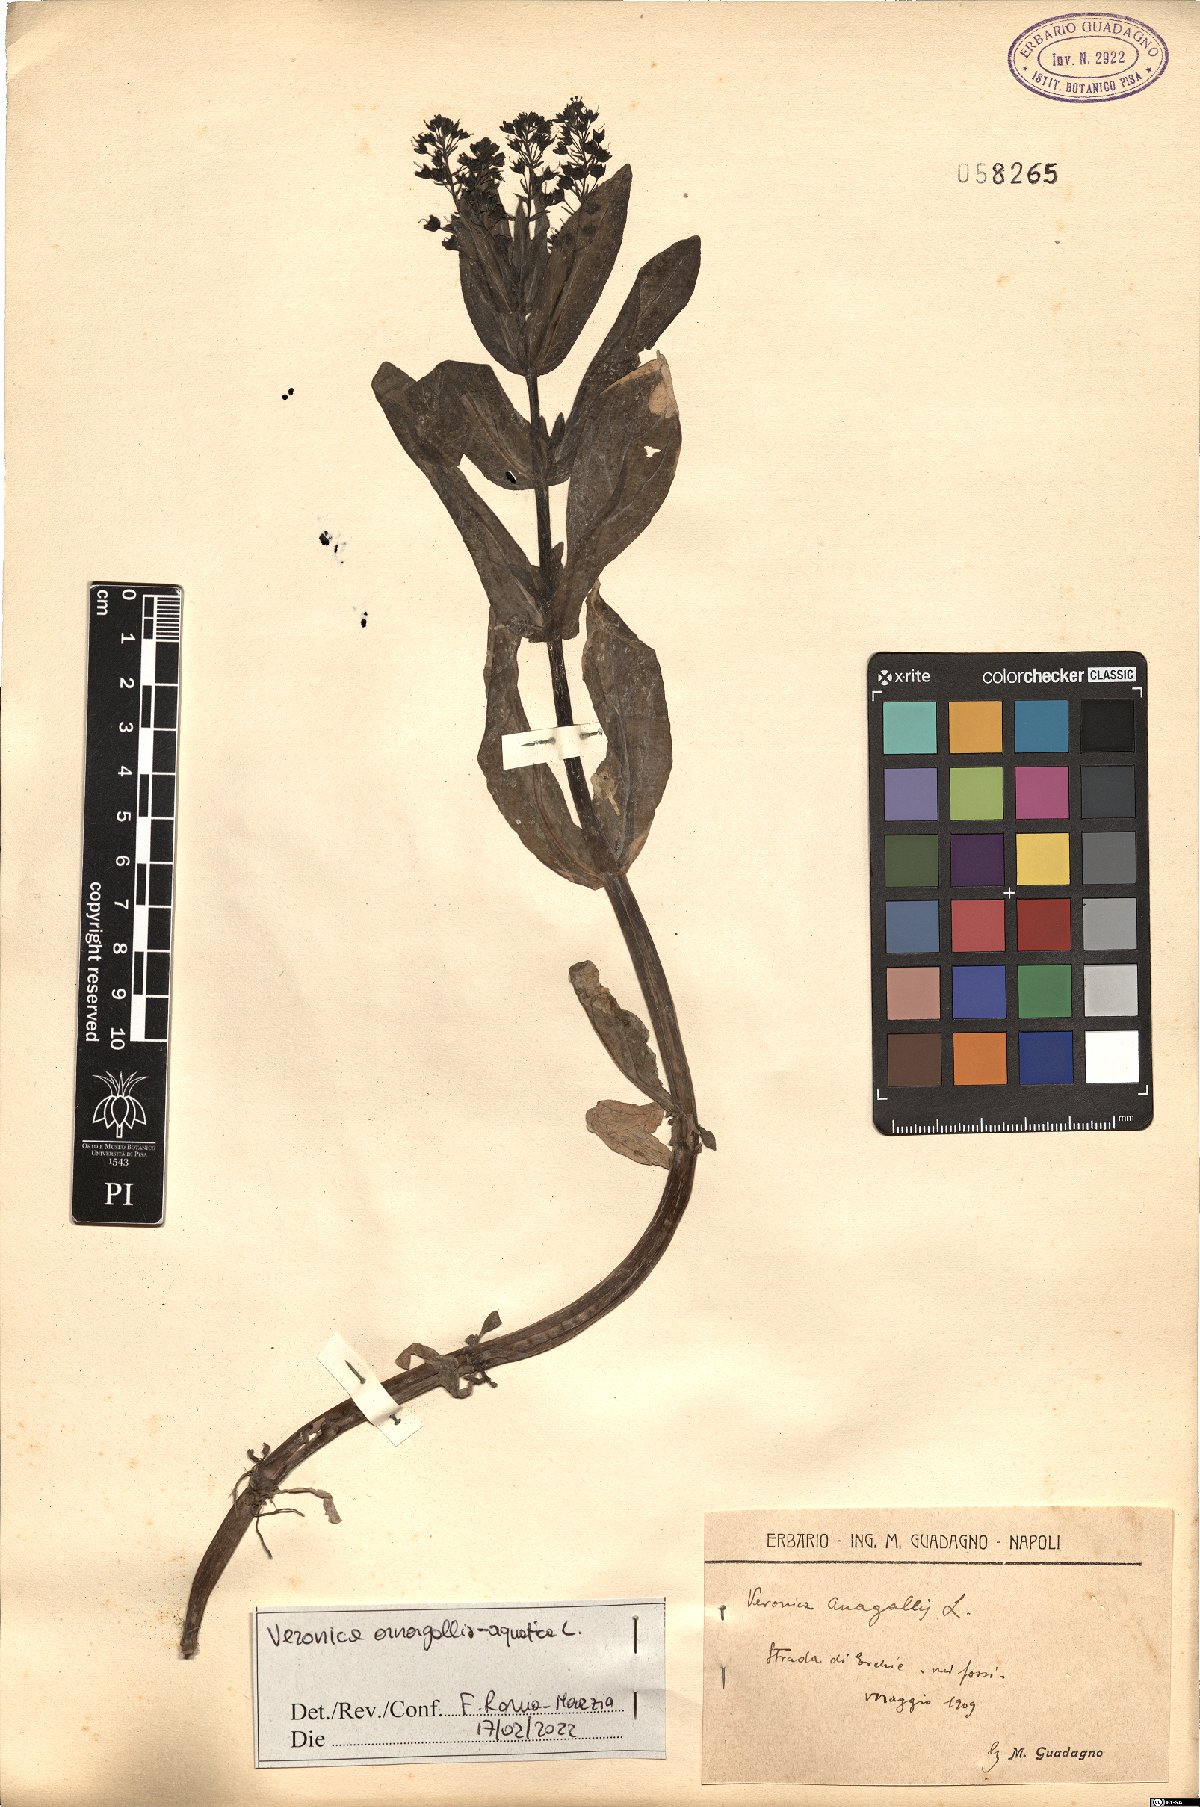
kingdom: Plantae
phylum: Tracheophyta
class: Magnoliopsida
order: Lamiales
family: Plantaginaceae
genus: Veronica
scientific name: Veronica anagallis-aquatica
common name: Water speedwell
